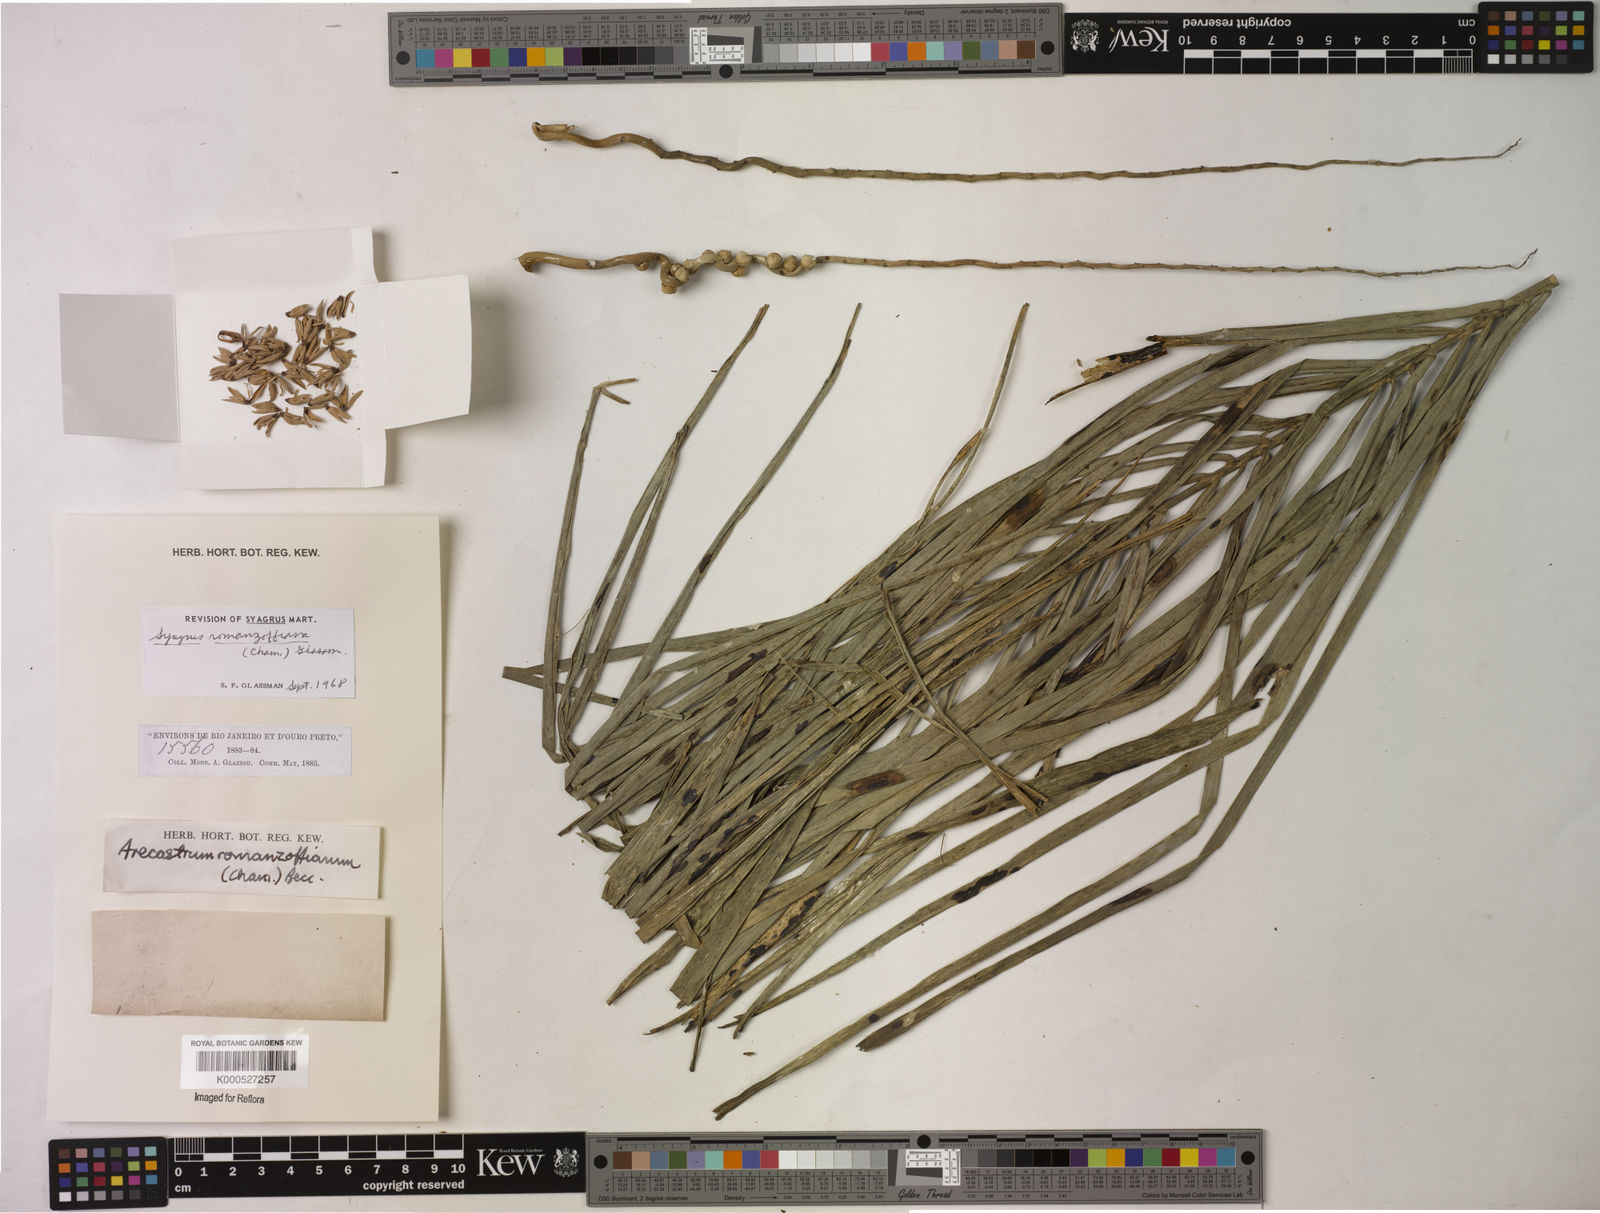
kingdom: Plantae
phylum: Tracheophyta
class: Liliopsida
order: Arecales
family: Arecaceae
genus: Syagrus
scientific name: Syagrus romanzoffiana
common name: Queen palm
